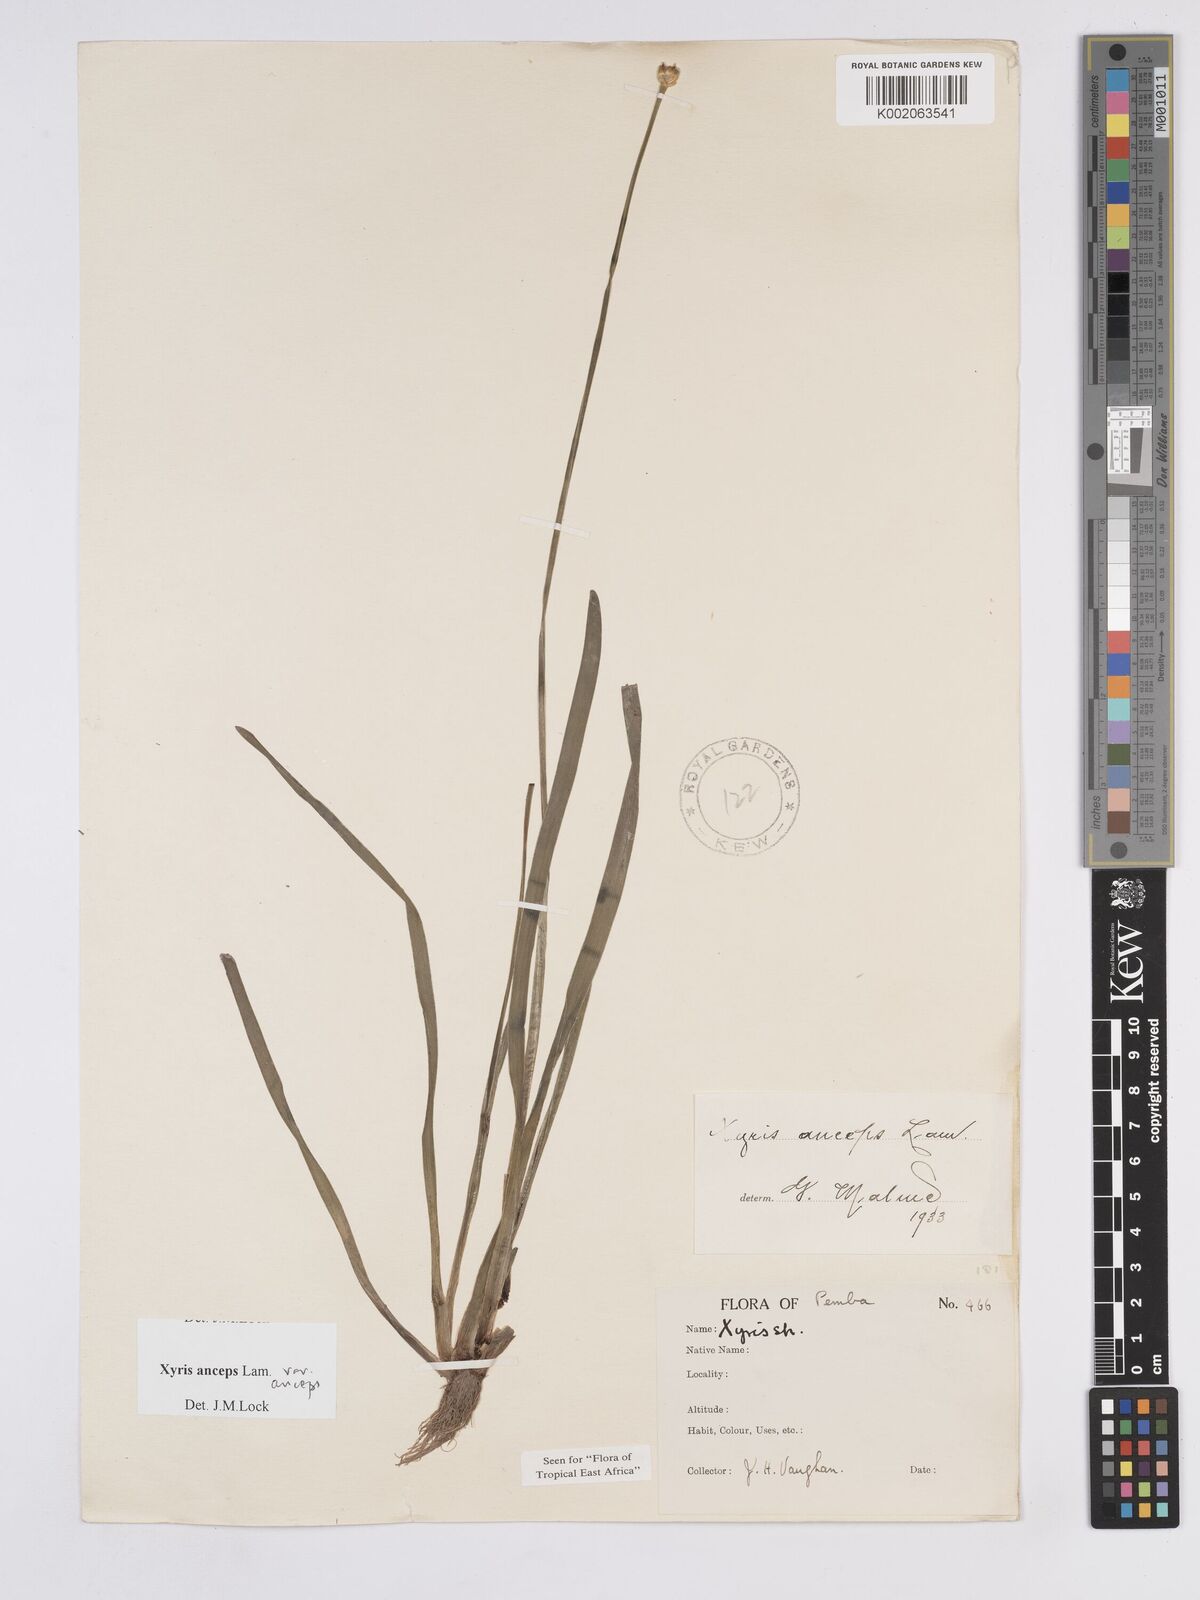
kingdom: Plantae
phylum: Tracheophyta
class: Liliopsida
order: Poales
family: Xyridaceae
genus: Xyris
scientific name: Xyris anceps
